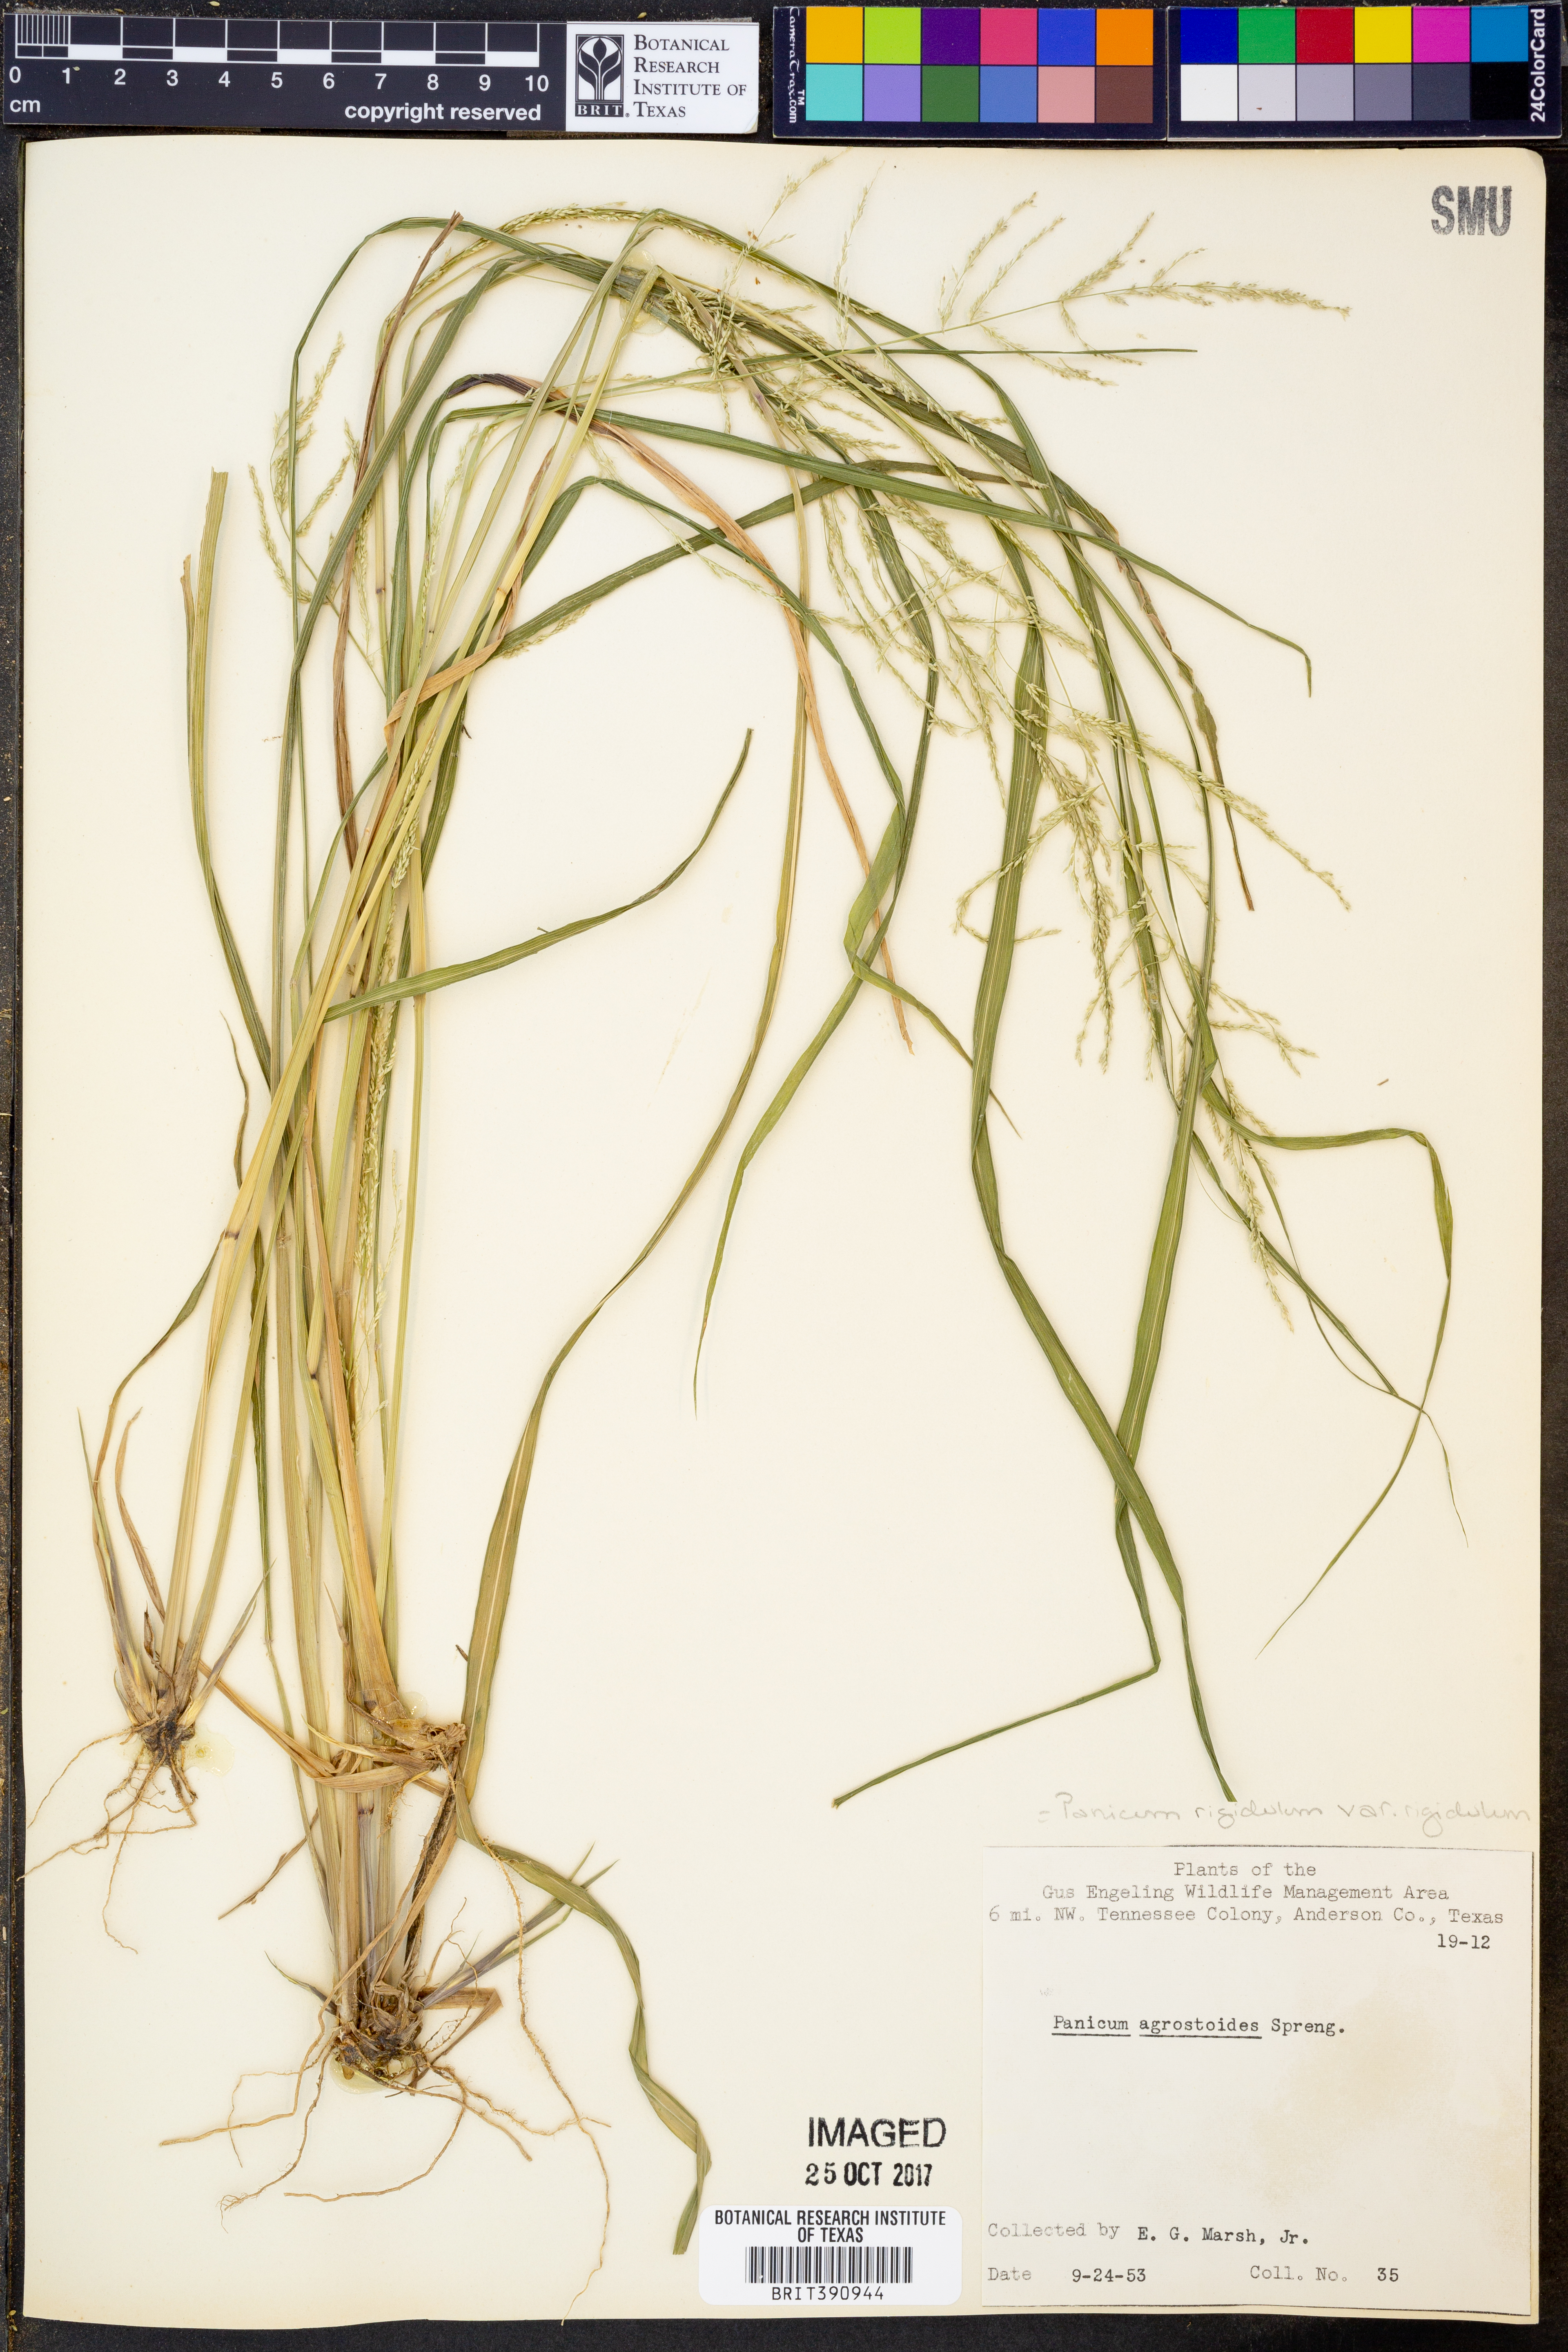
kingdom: Plantae
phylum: Tracheophyta
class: Liliopsida
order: Poales
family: Poaceae
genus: Steinchisma
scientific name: Steinchisma laxum
